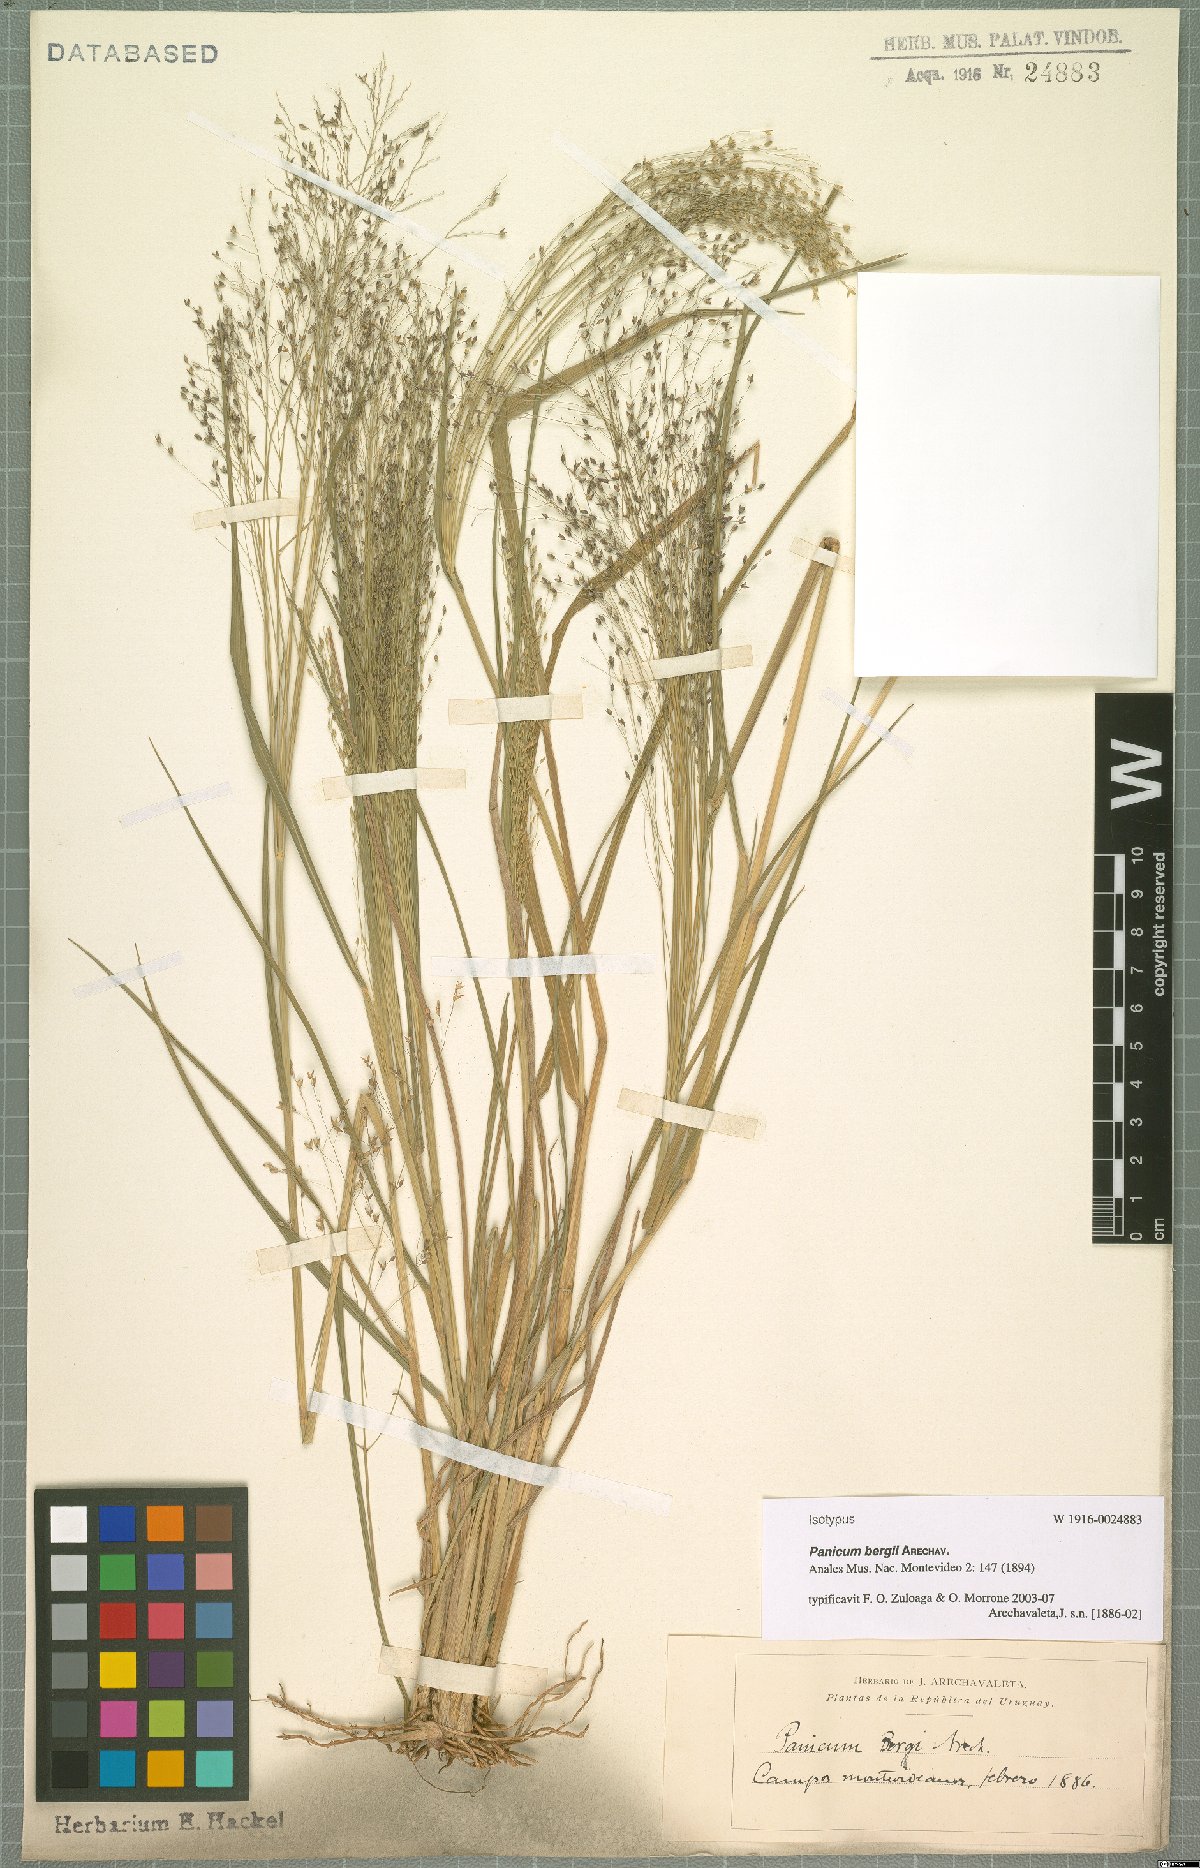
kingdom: Plantae
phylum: Tracheophyta
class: Liliopsida
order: Poales
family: Poaceae
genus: Panicum
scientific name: Panicum bergii
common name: Berg's panicgrass
